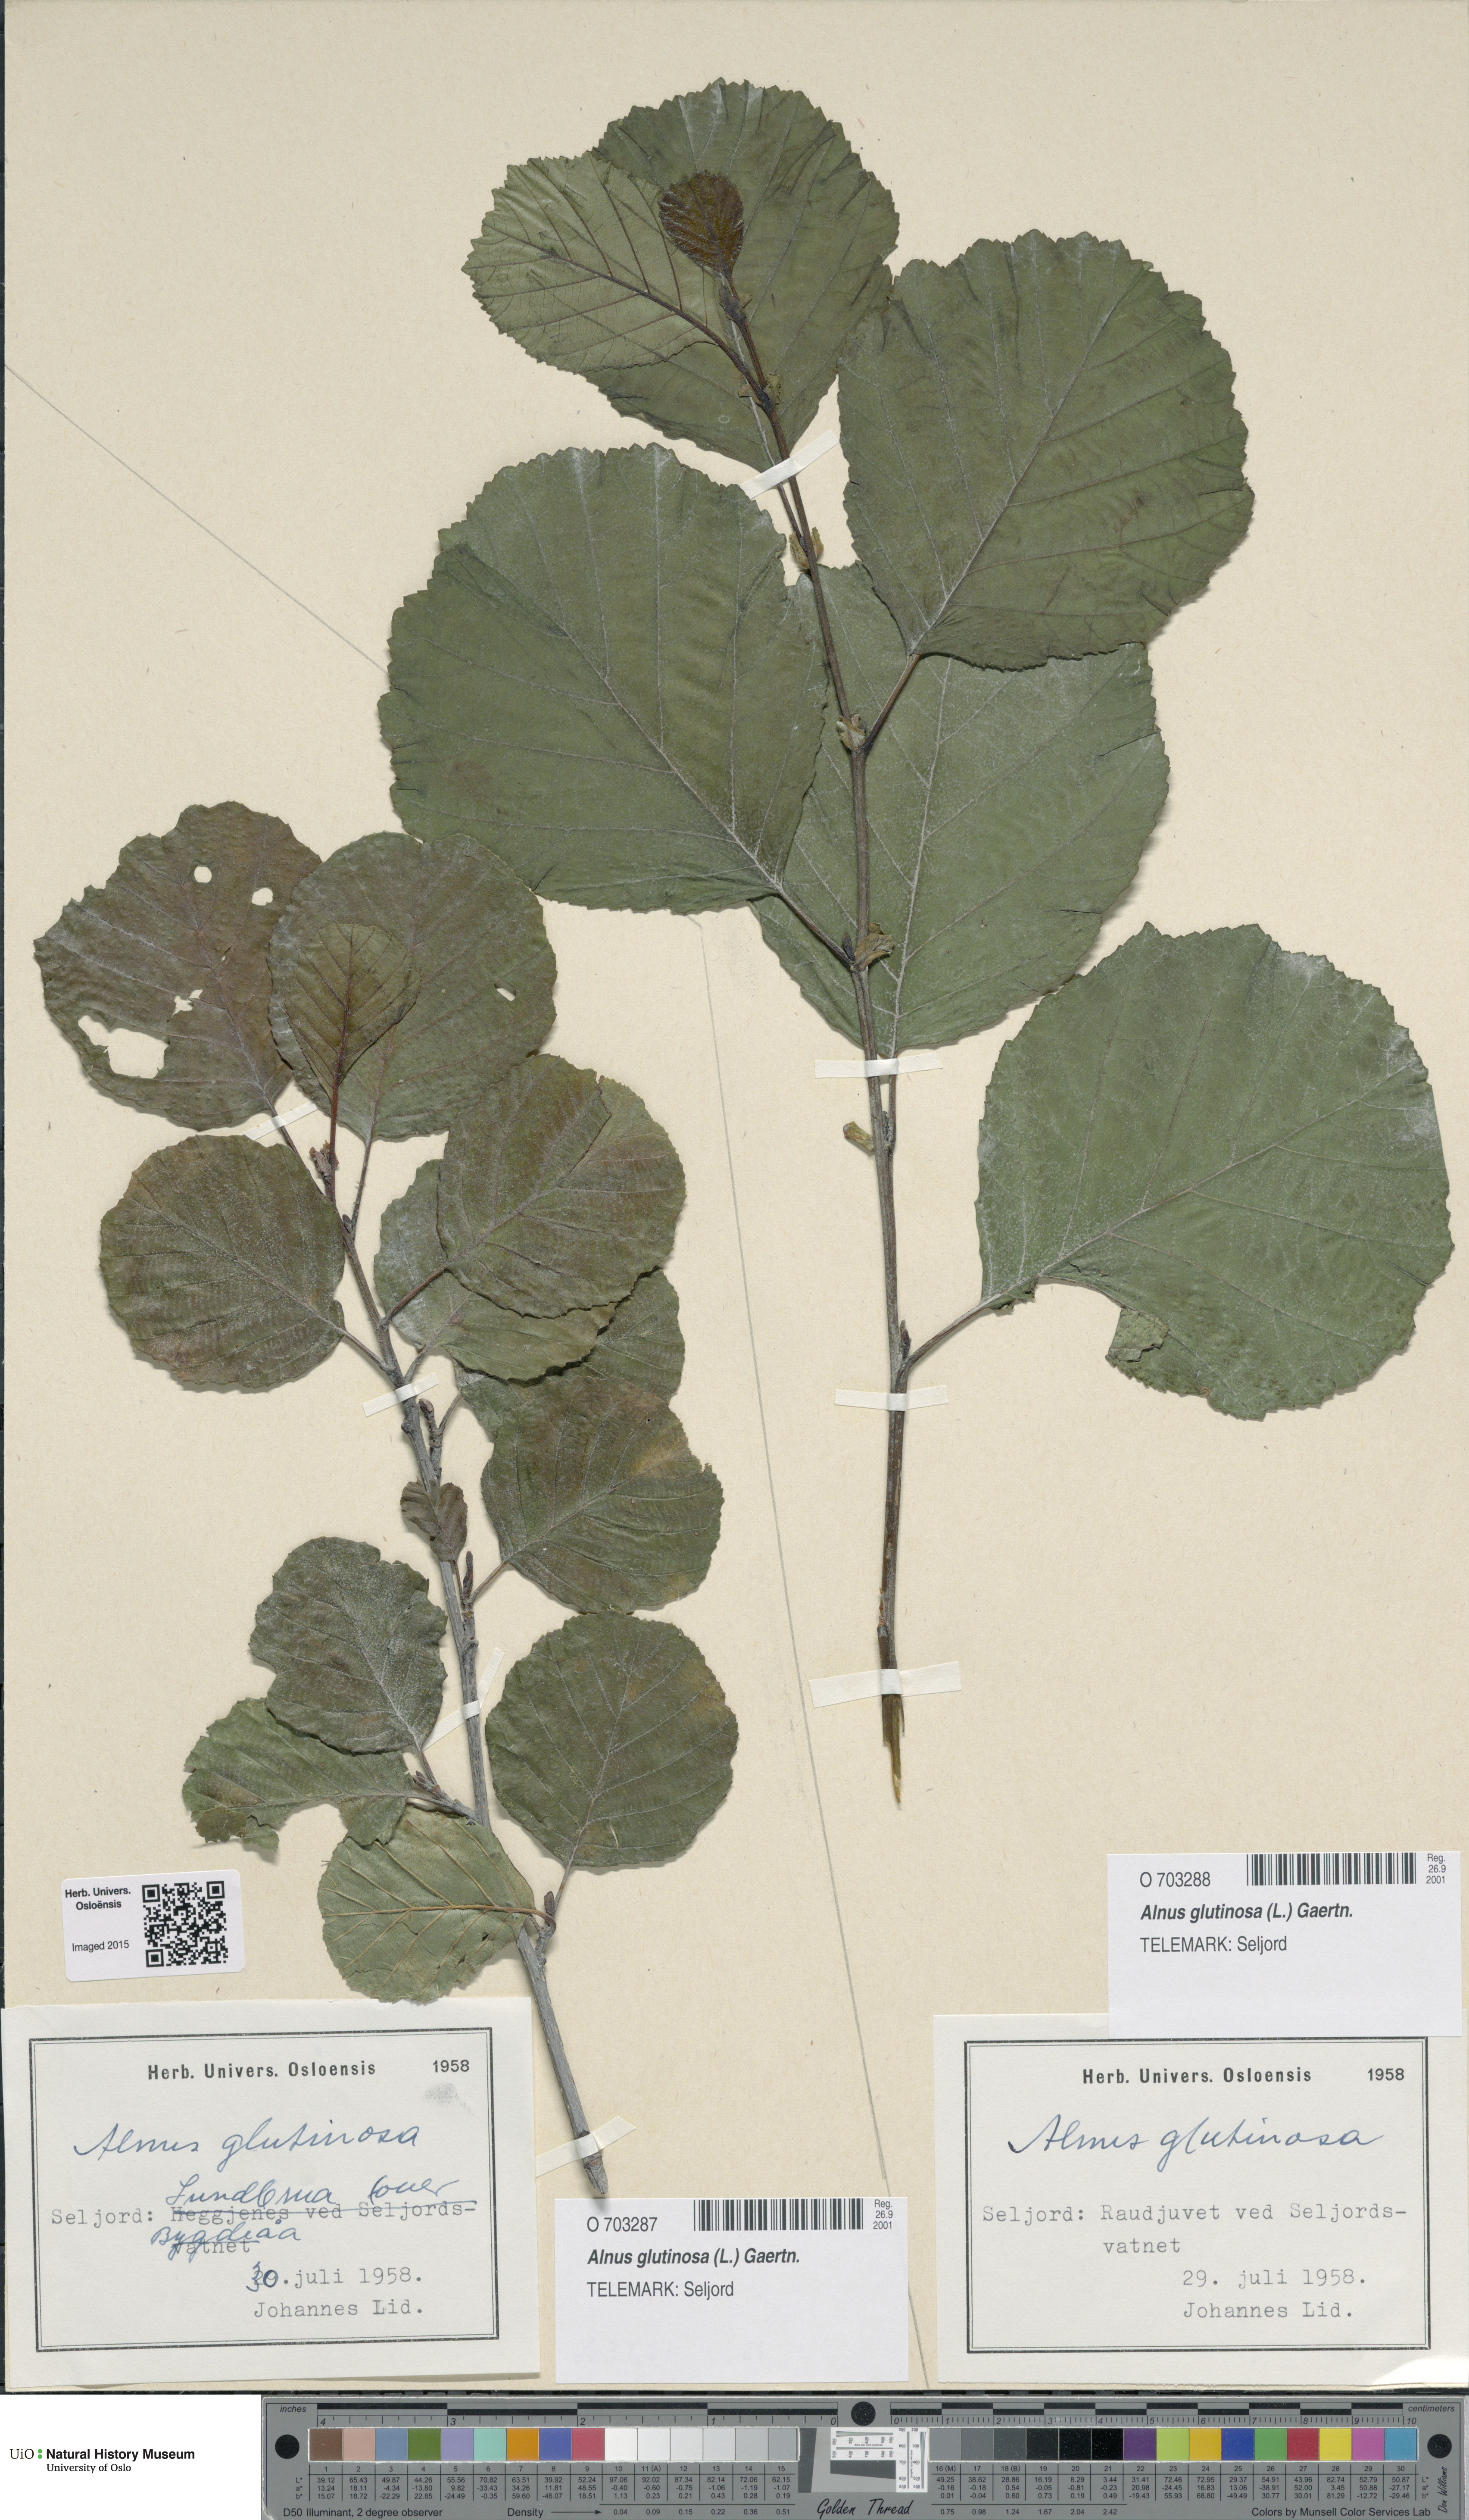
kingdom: Plantae
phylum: Tracheophyta
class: Magnoliopsida
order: Fagales
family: Betulaceae
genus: Alnus
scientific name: Alnus glutinosa
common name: Black alder
